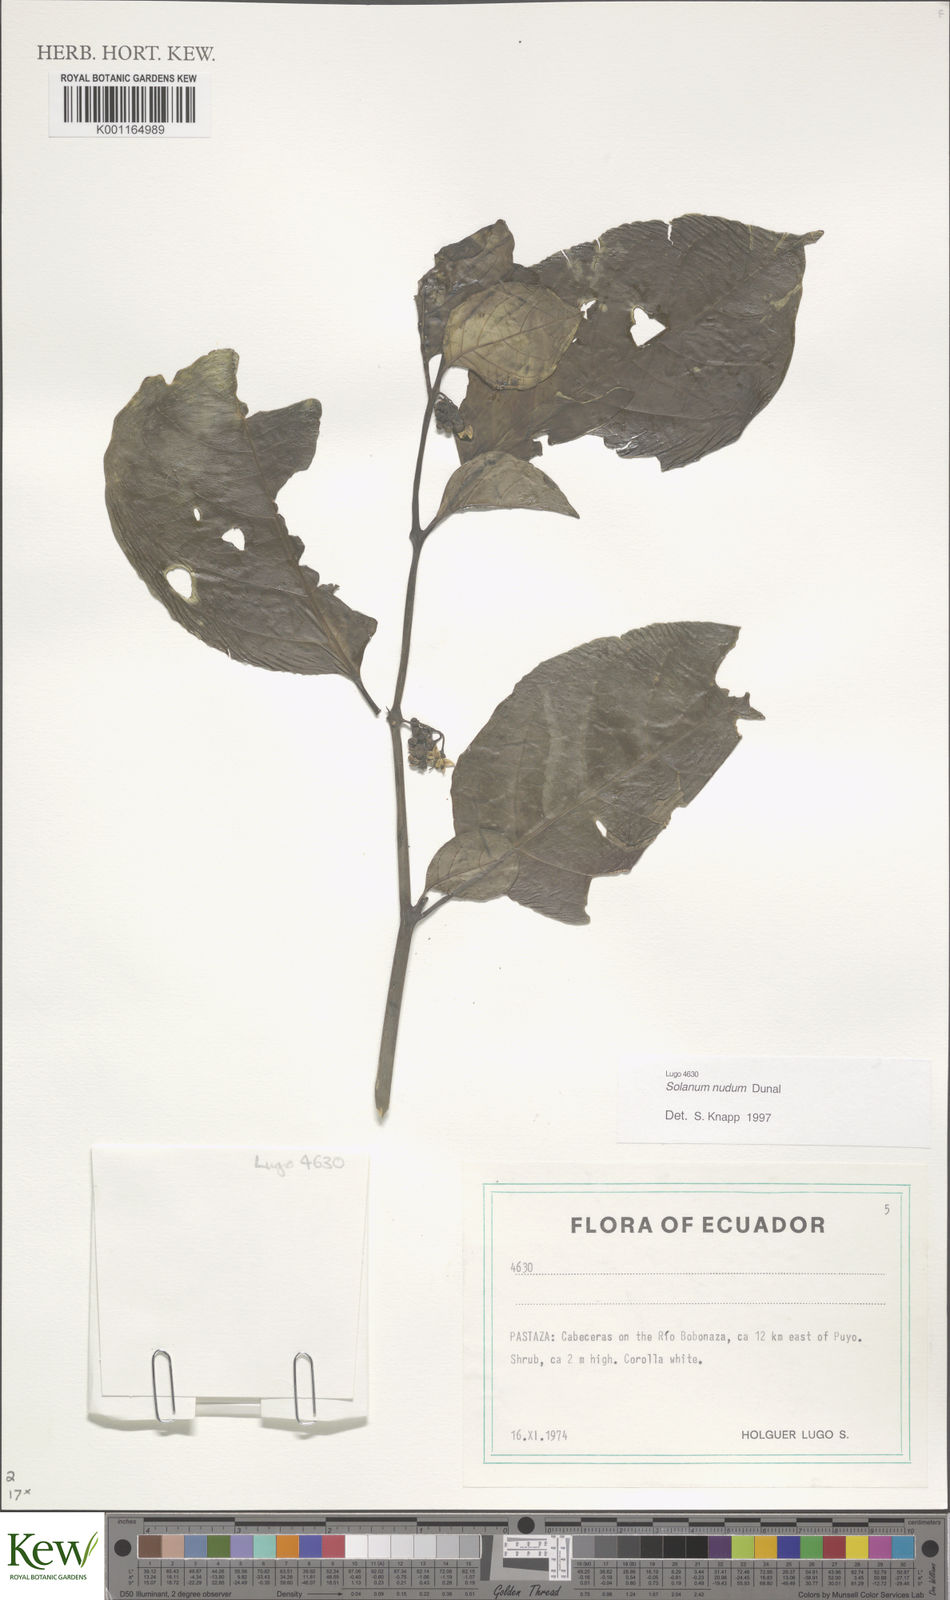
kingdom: Plantae
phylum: Tracheophyta
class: Magnoliopsida
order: Solanales
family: Solanaceae
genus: Solanum
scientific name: Solanum nudum
